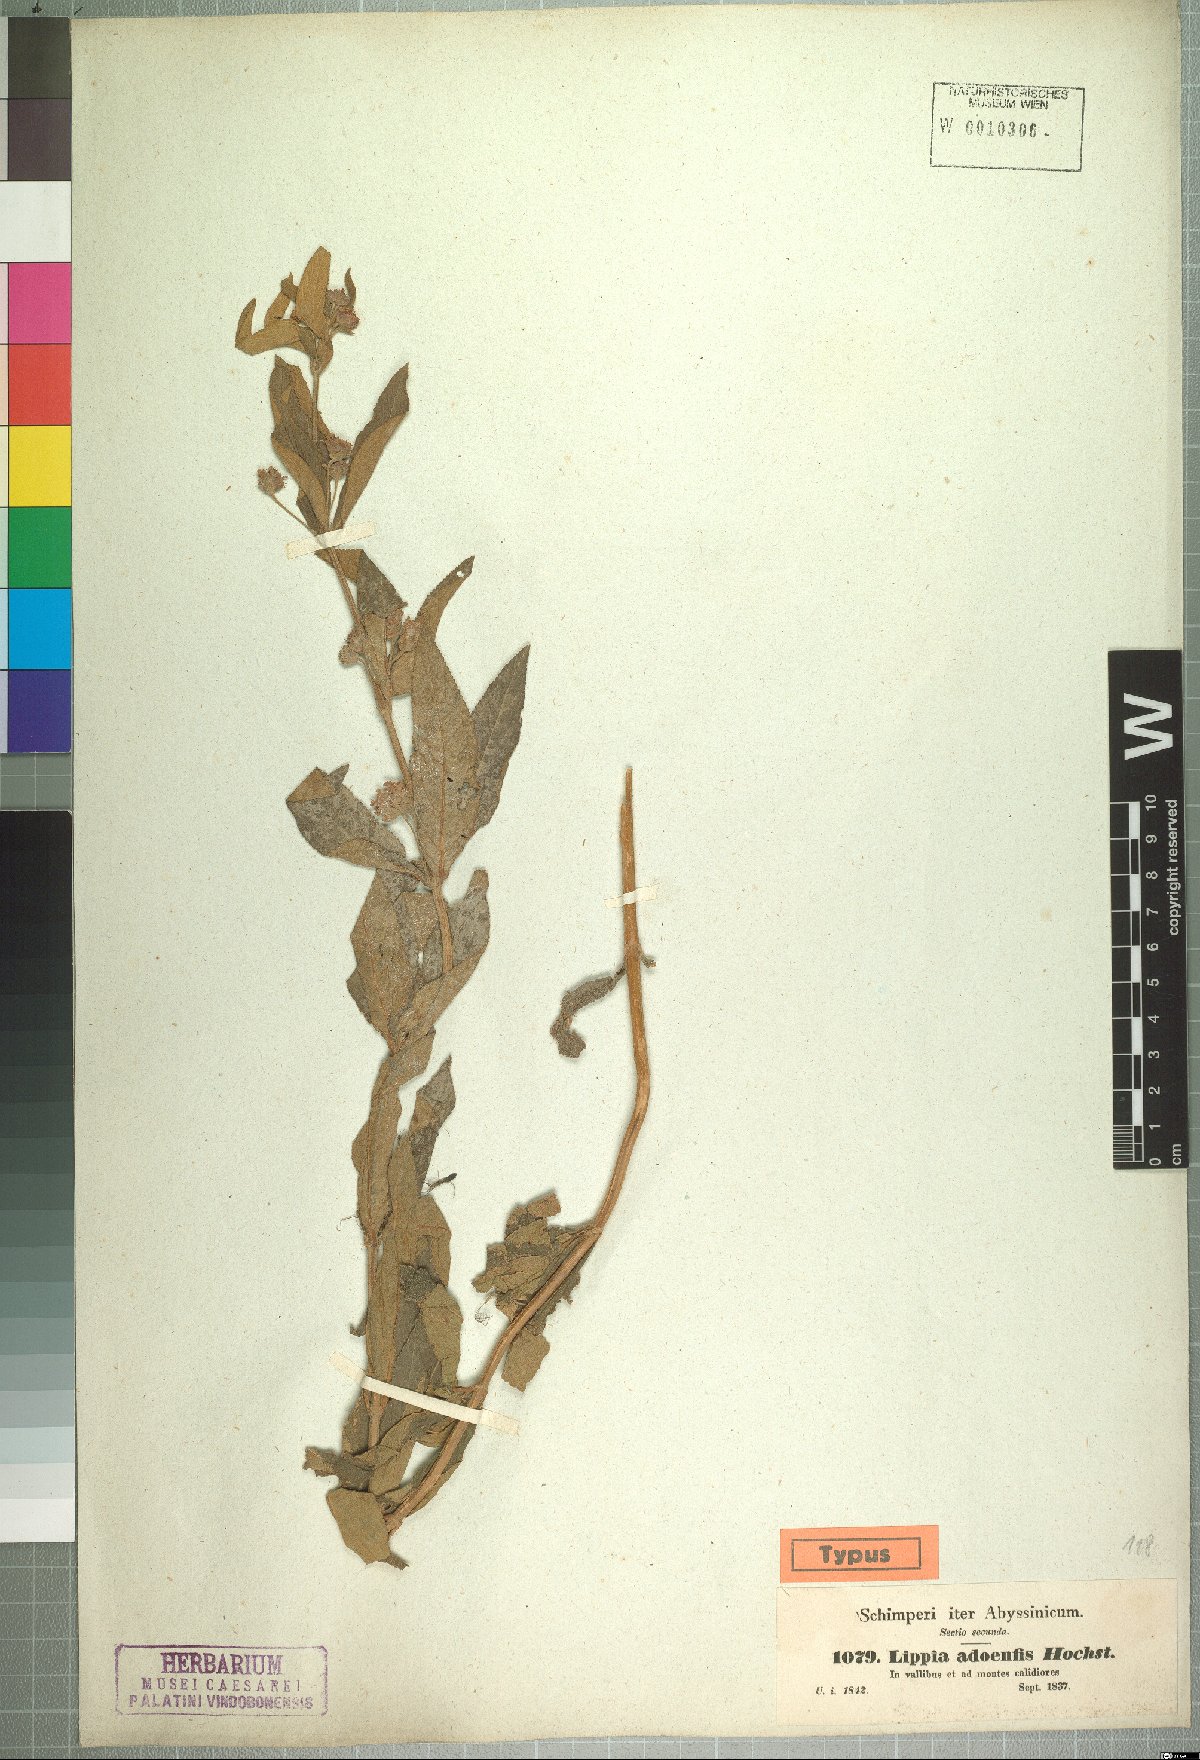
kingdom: Plantae
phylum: Tracheophyta
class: Magnoliopsida
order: Lamiales
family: Verbenaceae
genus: Lippia
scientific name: Lippia abyssinica
